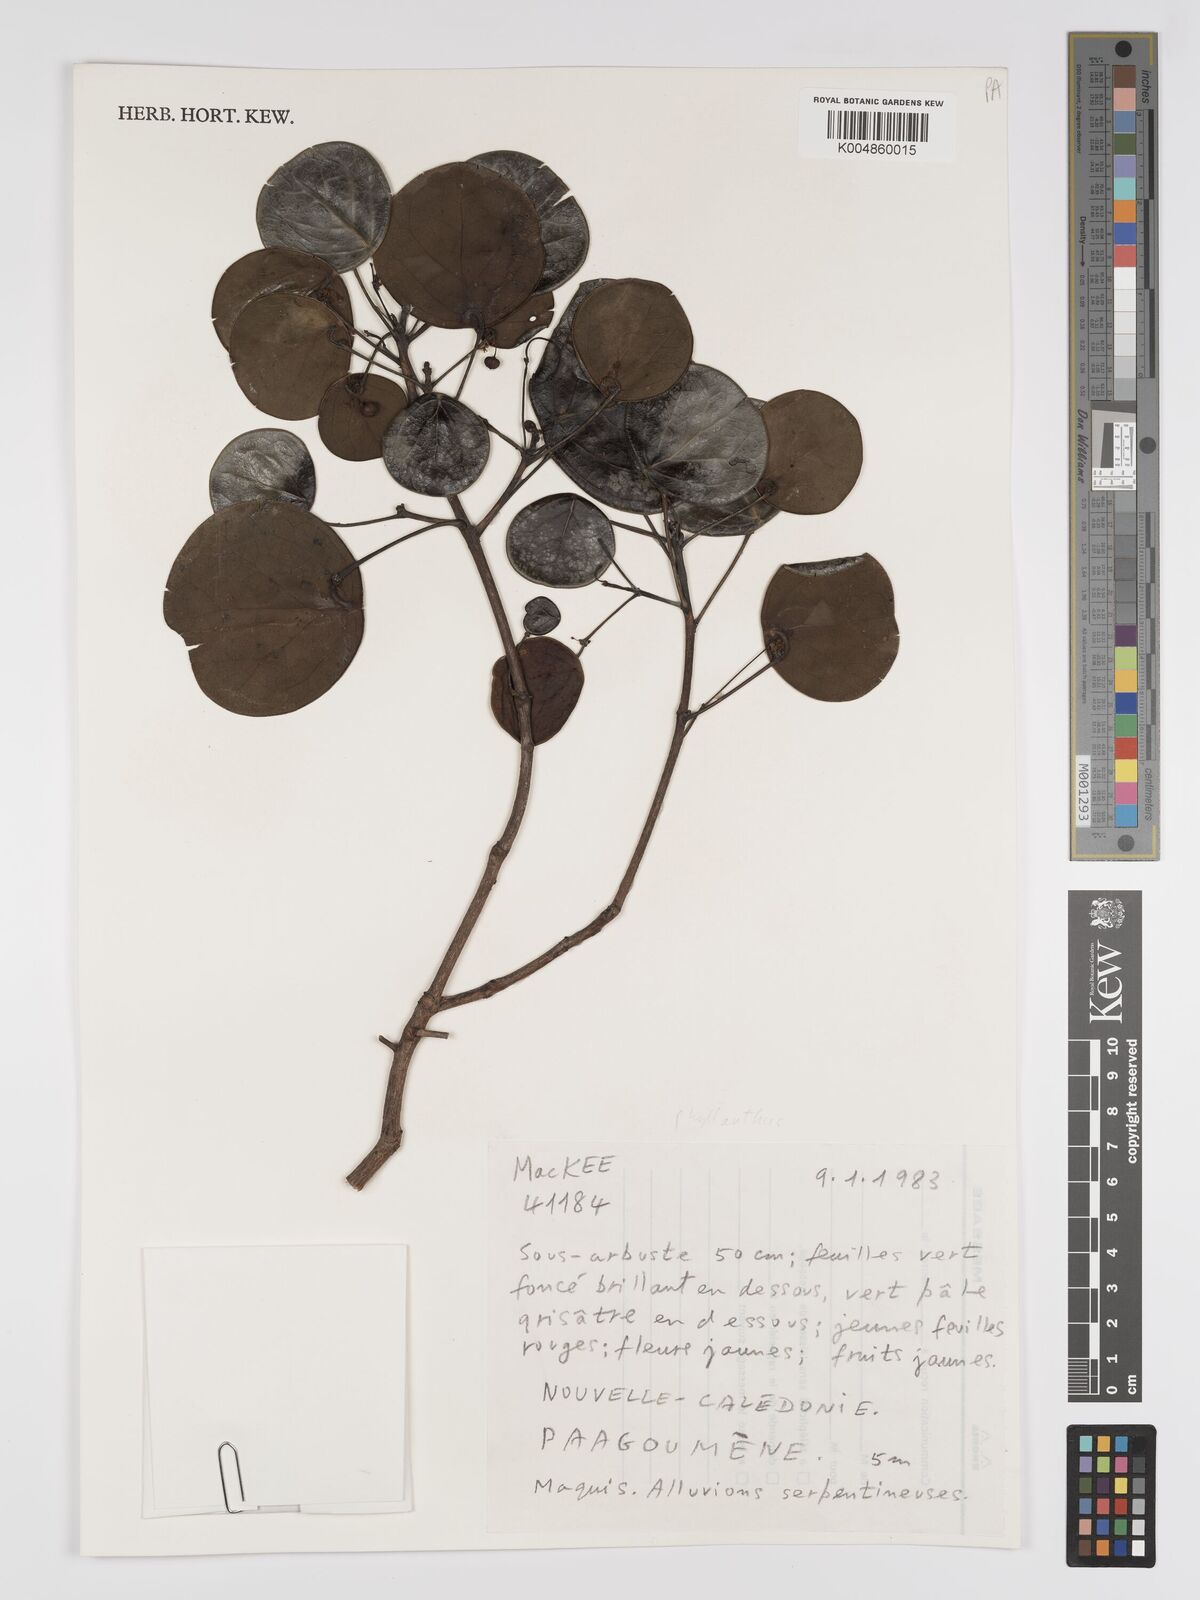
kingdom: Plantae
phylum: Tracheophyta
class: Magnoliopsida
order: Malpighiales
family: Phyllanthaceae
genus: Phyllanthus
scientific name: Phyllanthus
